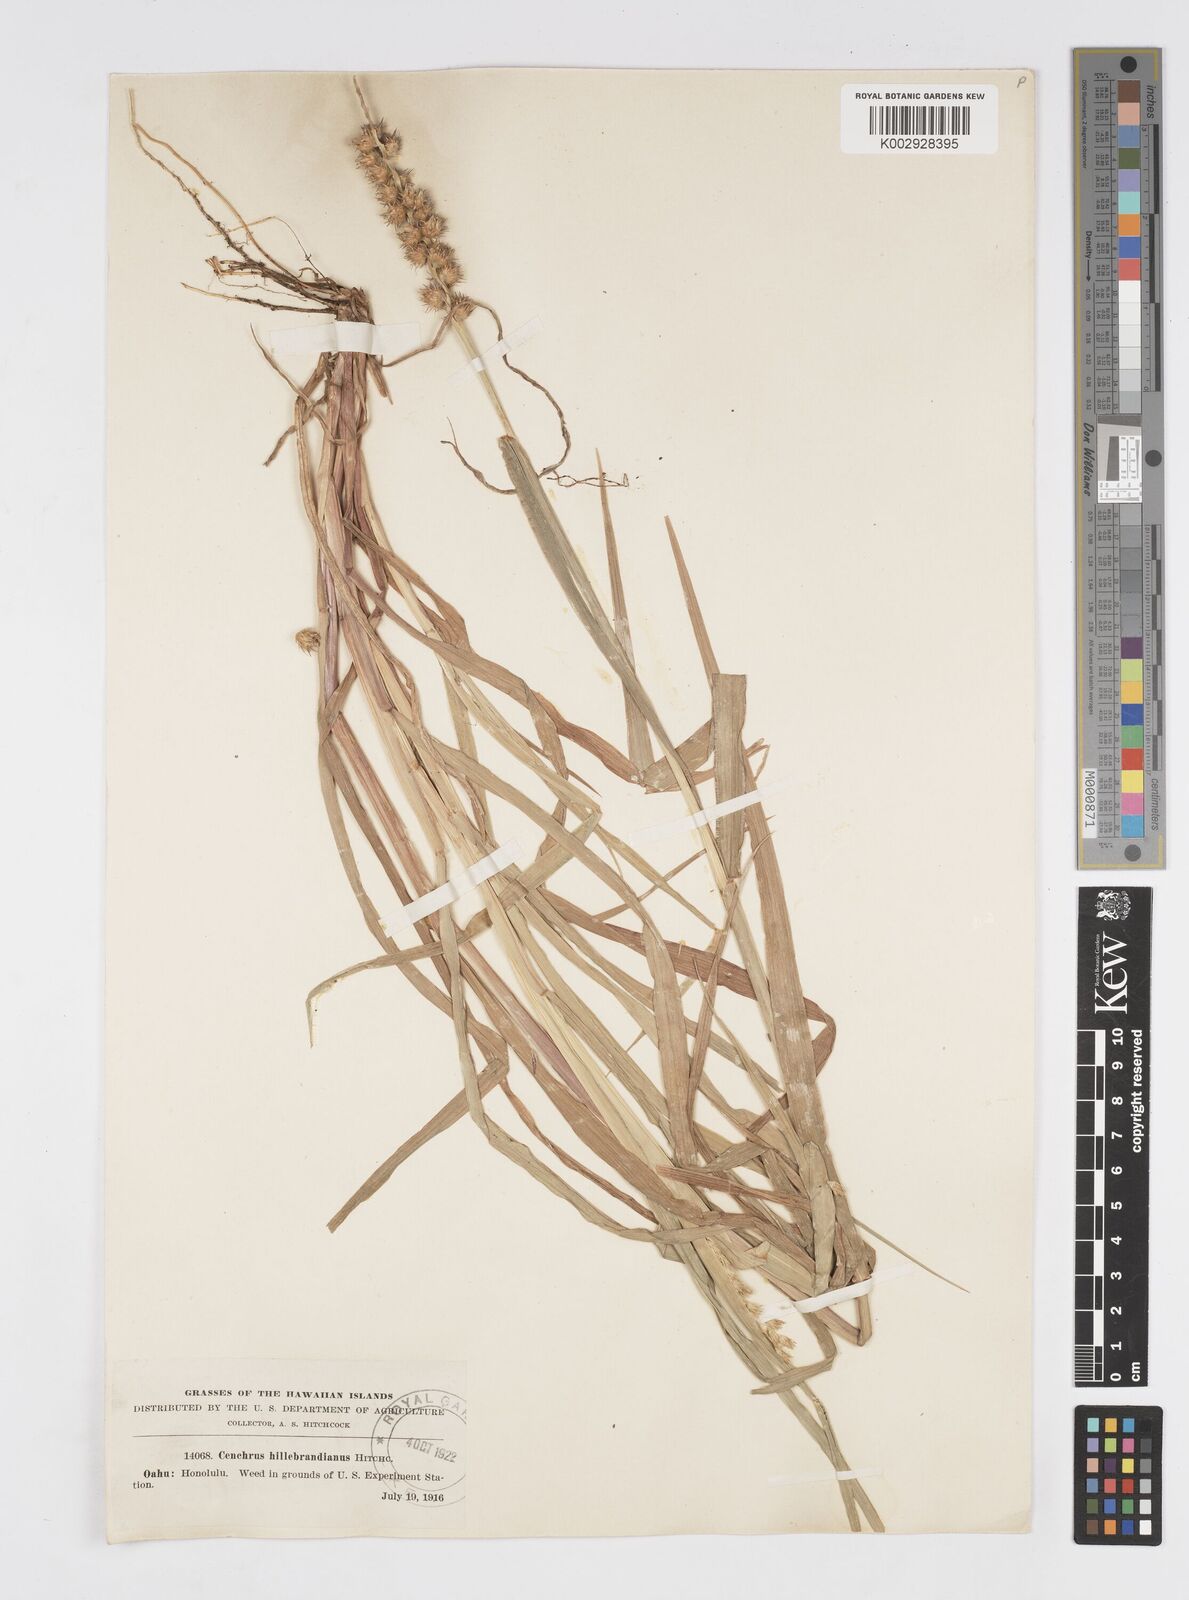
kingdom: Plantae
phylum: Tracheophyta
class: Liliopsida
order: Poales
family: Poaceae
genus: Cenchrus
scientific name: Cenchrus echinatus
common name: Southern sandbur
